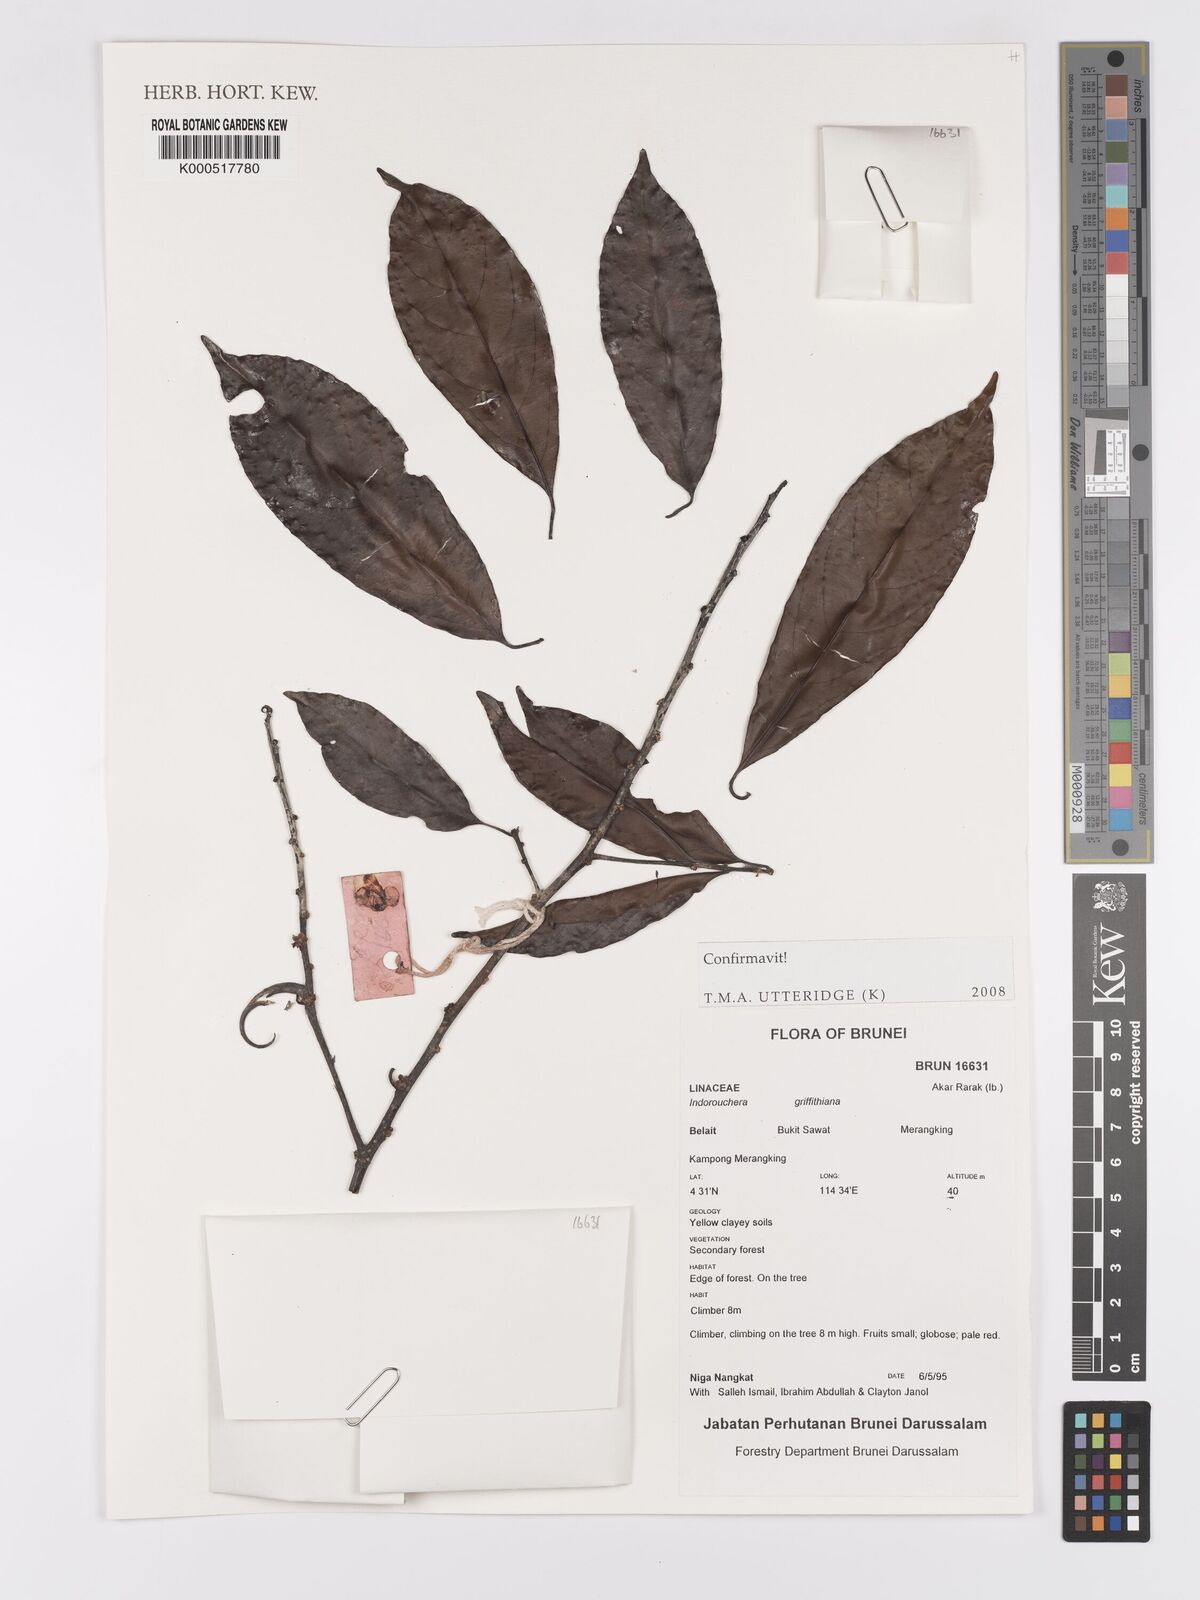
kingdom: Plantae
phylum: Tracheophyta
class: Magnoliopsida
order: Malpighiales
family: Linaceae
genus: Indorouchera
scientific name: Indorouchera griffithiana
